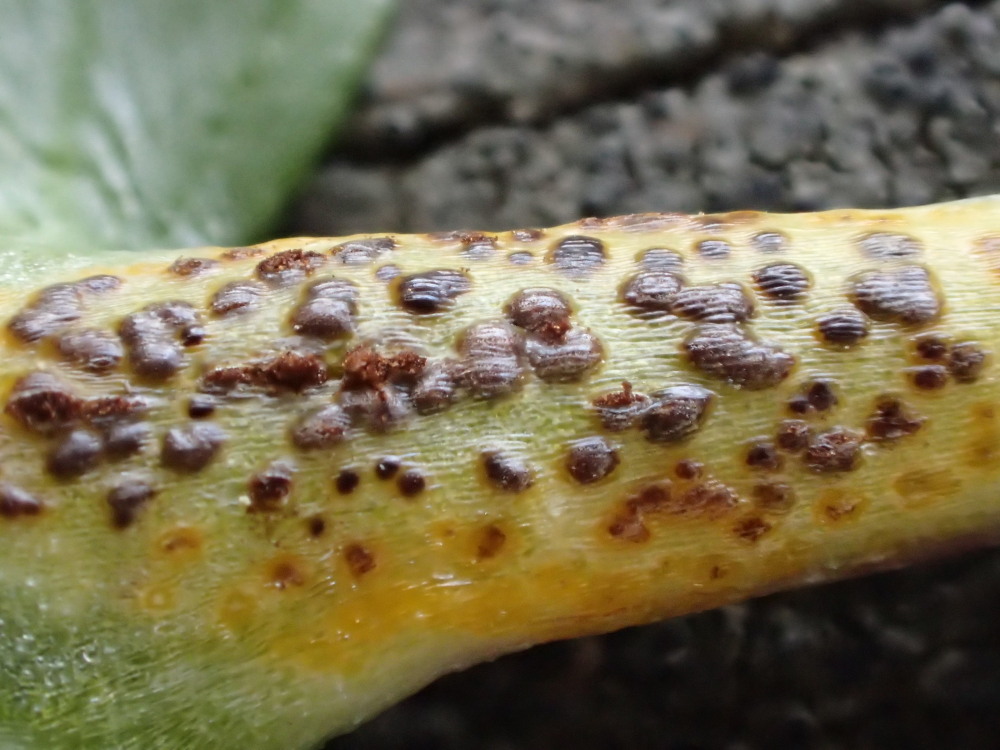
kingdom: Fungi
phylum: Basidiomycota
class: Pucciniomycetes
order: Pucciniales
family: Pucciniaceae
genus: Uromyces
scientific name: Uromyces ficariae
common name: vorterod-encellerust
